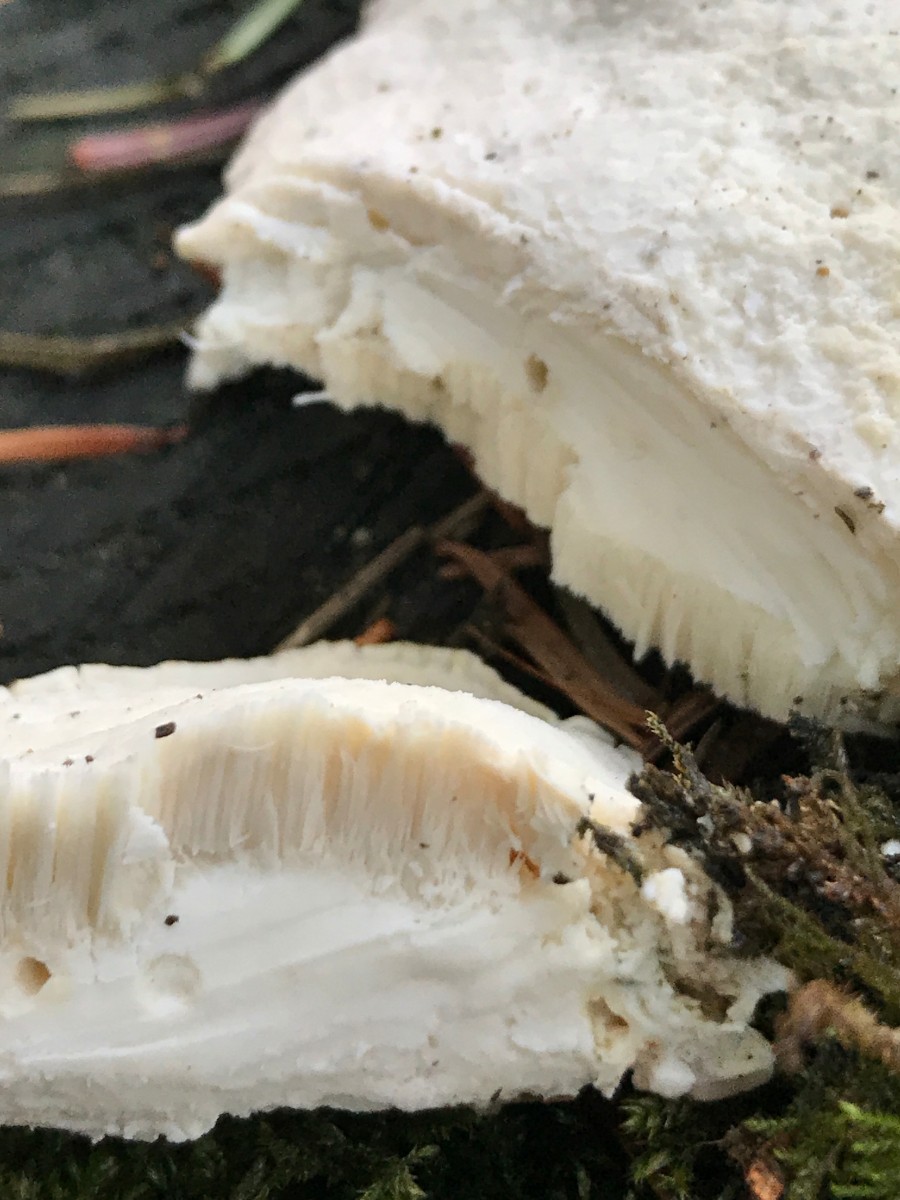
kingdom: Fungi
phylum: Basidiomycota
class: Agaricomycetes
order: Polyporales
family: Incrustoporiaceae
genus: Tyromyces
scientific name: Tyromyces lacteus
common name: mælkehvid kødporesvamp
